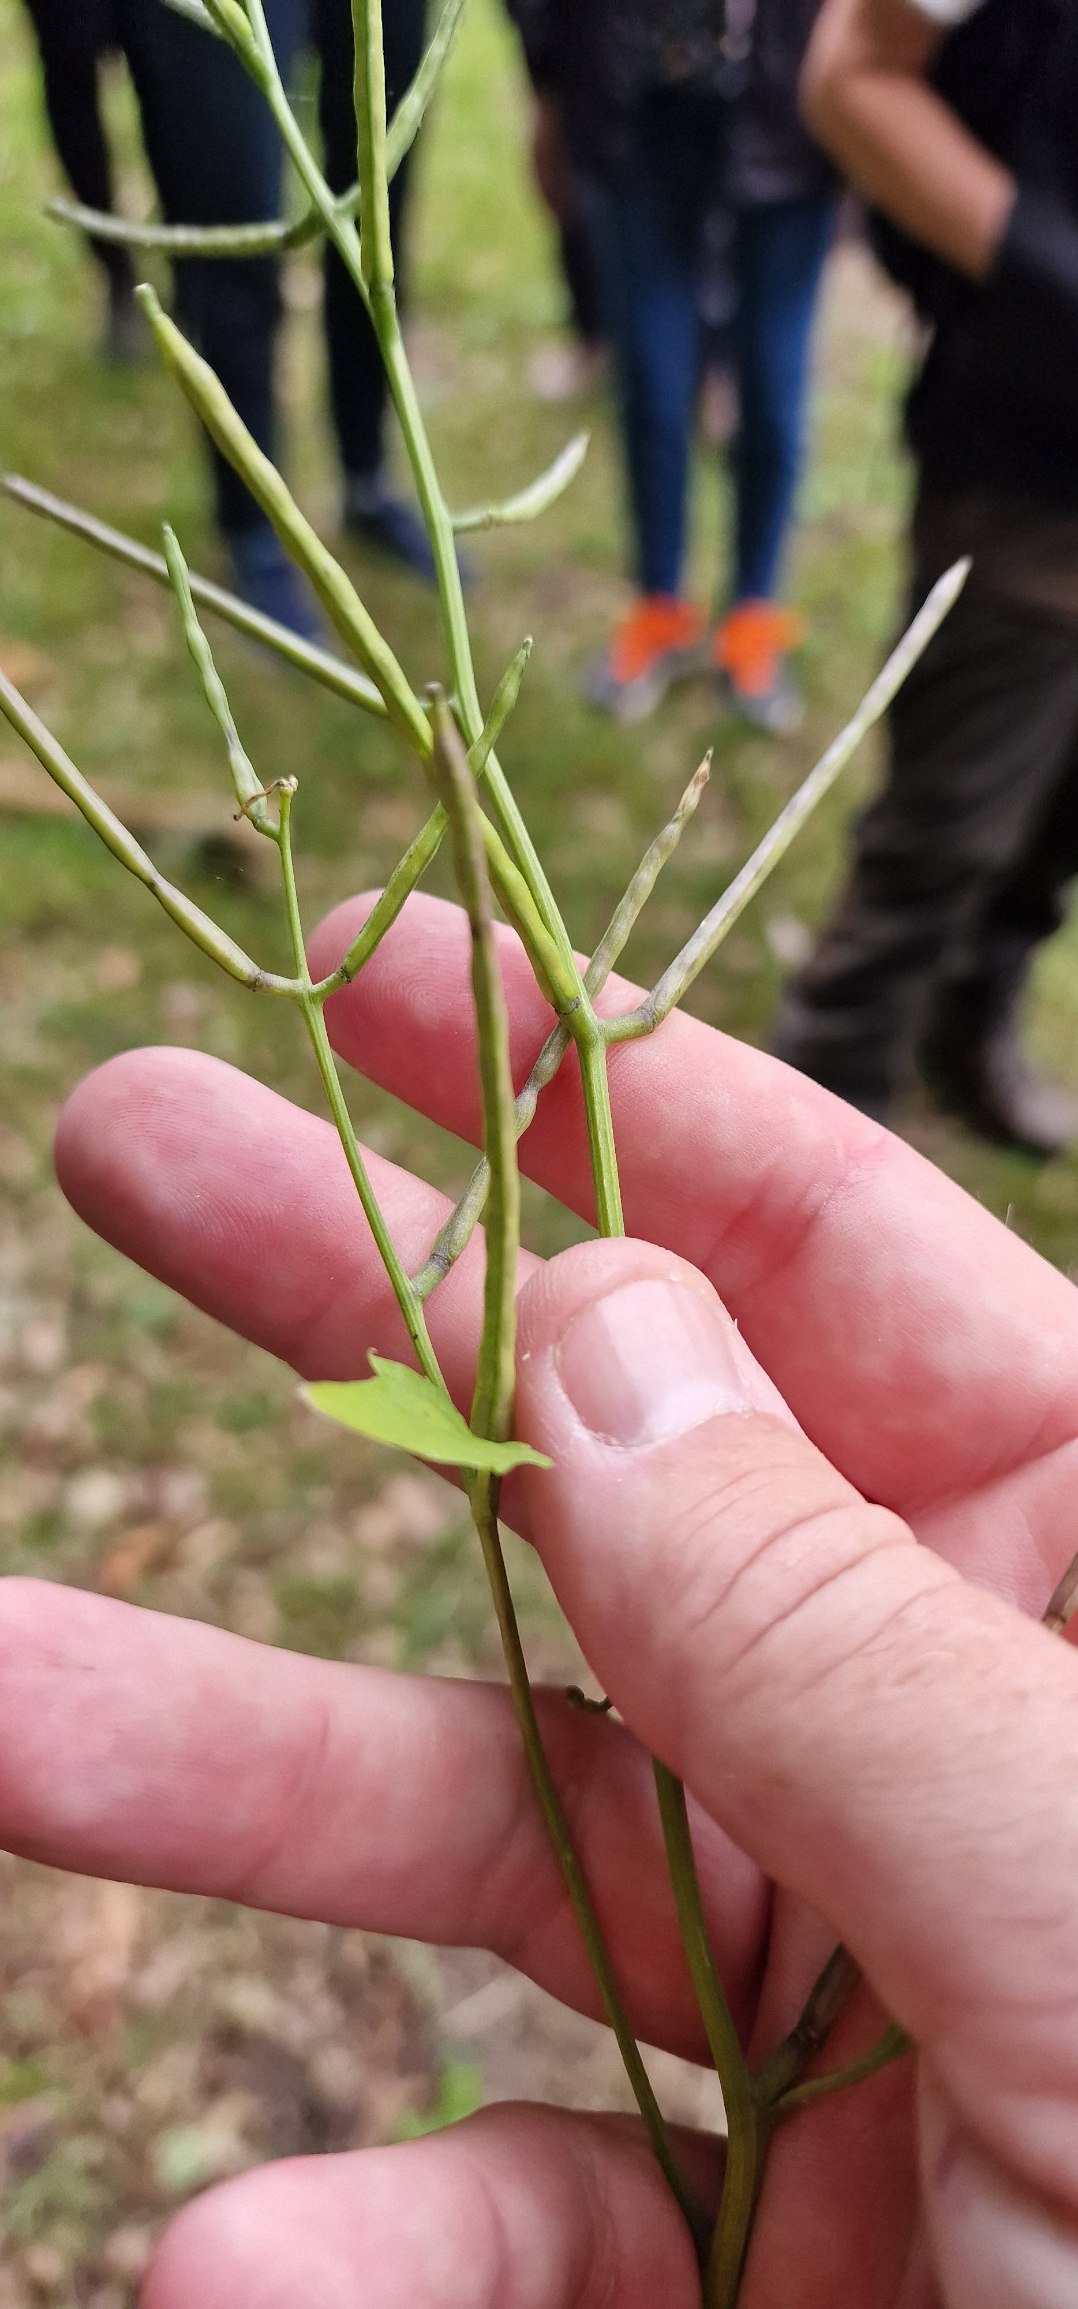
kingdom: Plantae
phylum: Tracheophyta
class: Magnoliopsida
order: Brassicales
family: Brassicaceae
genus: Alliaria
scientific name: Alliaria petiolata
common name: Løgkarse
